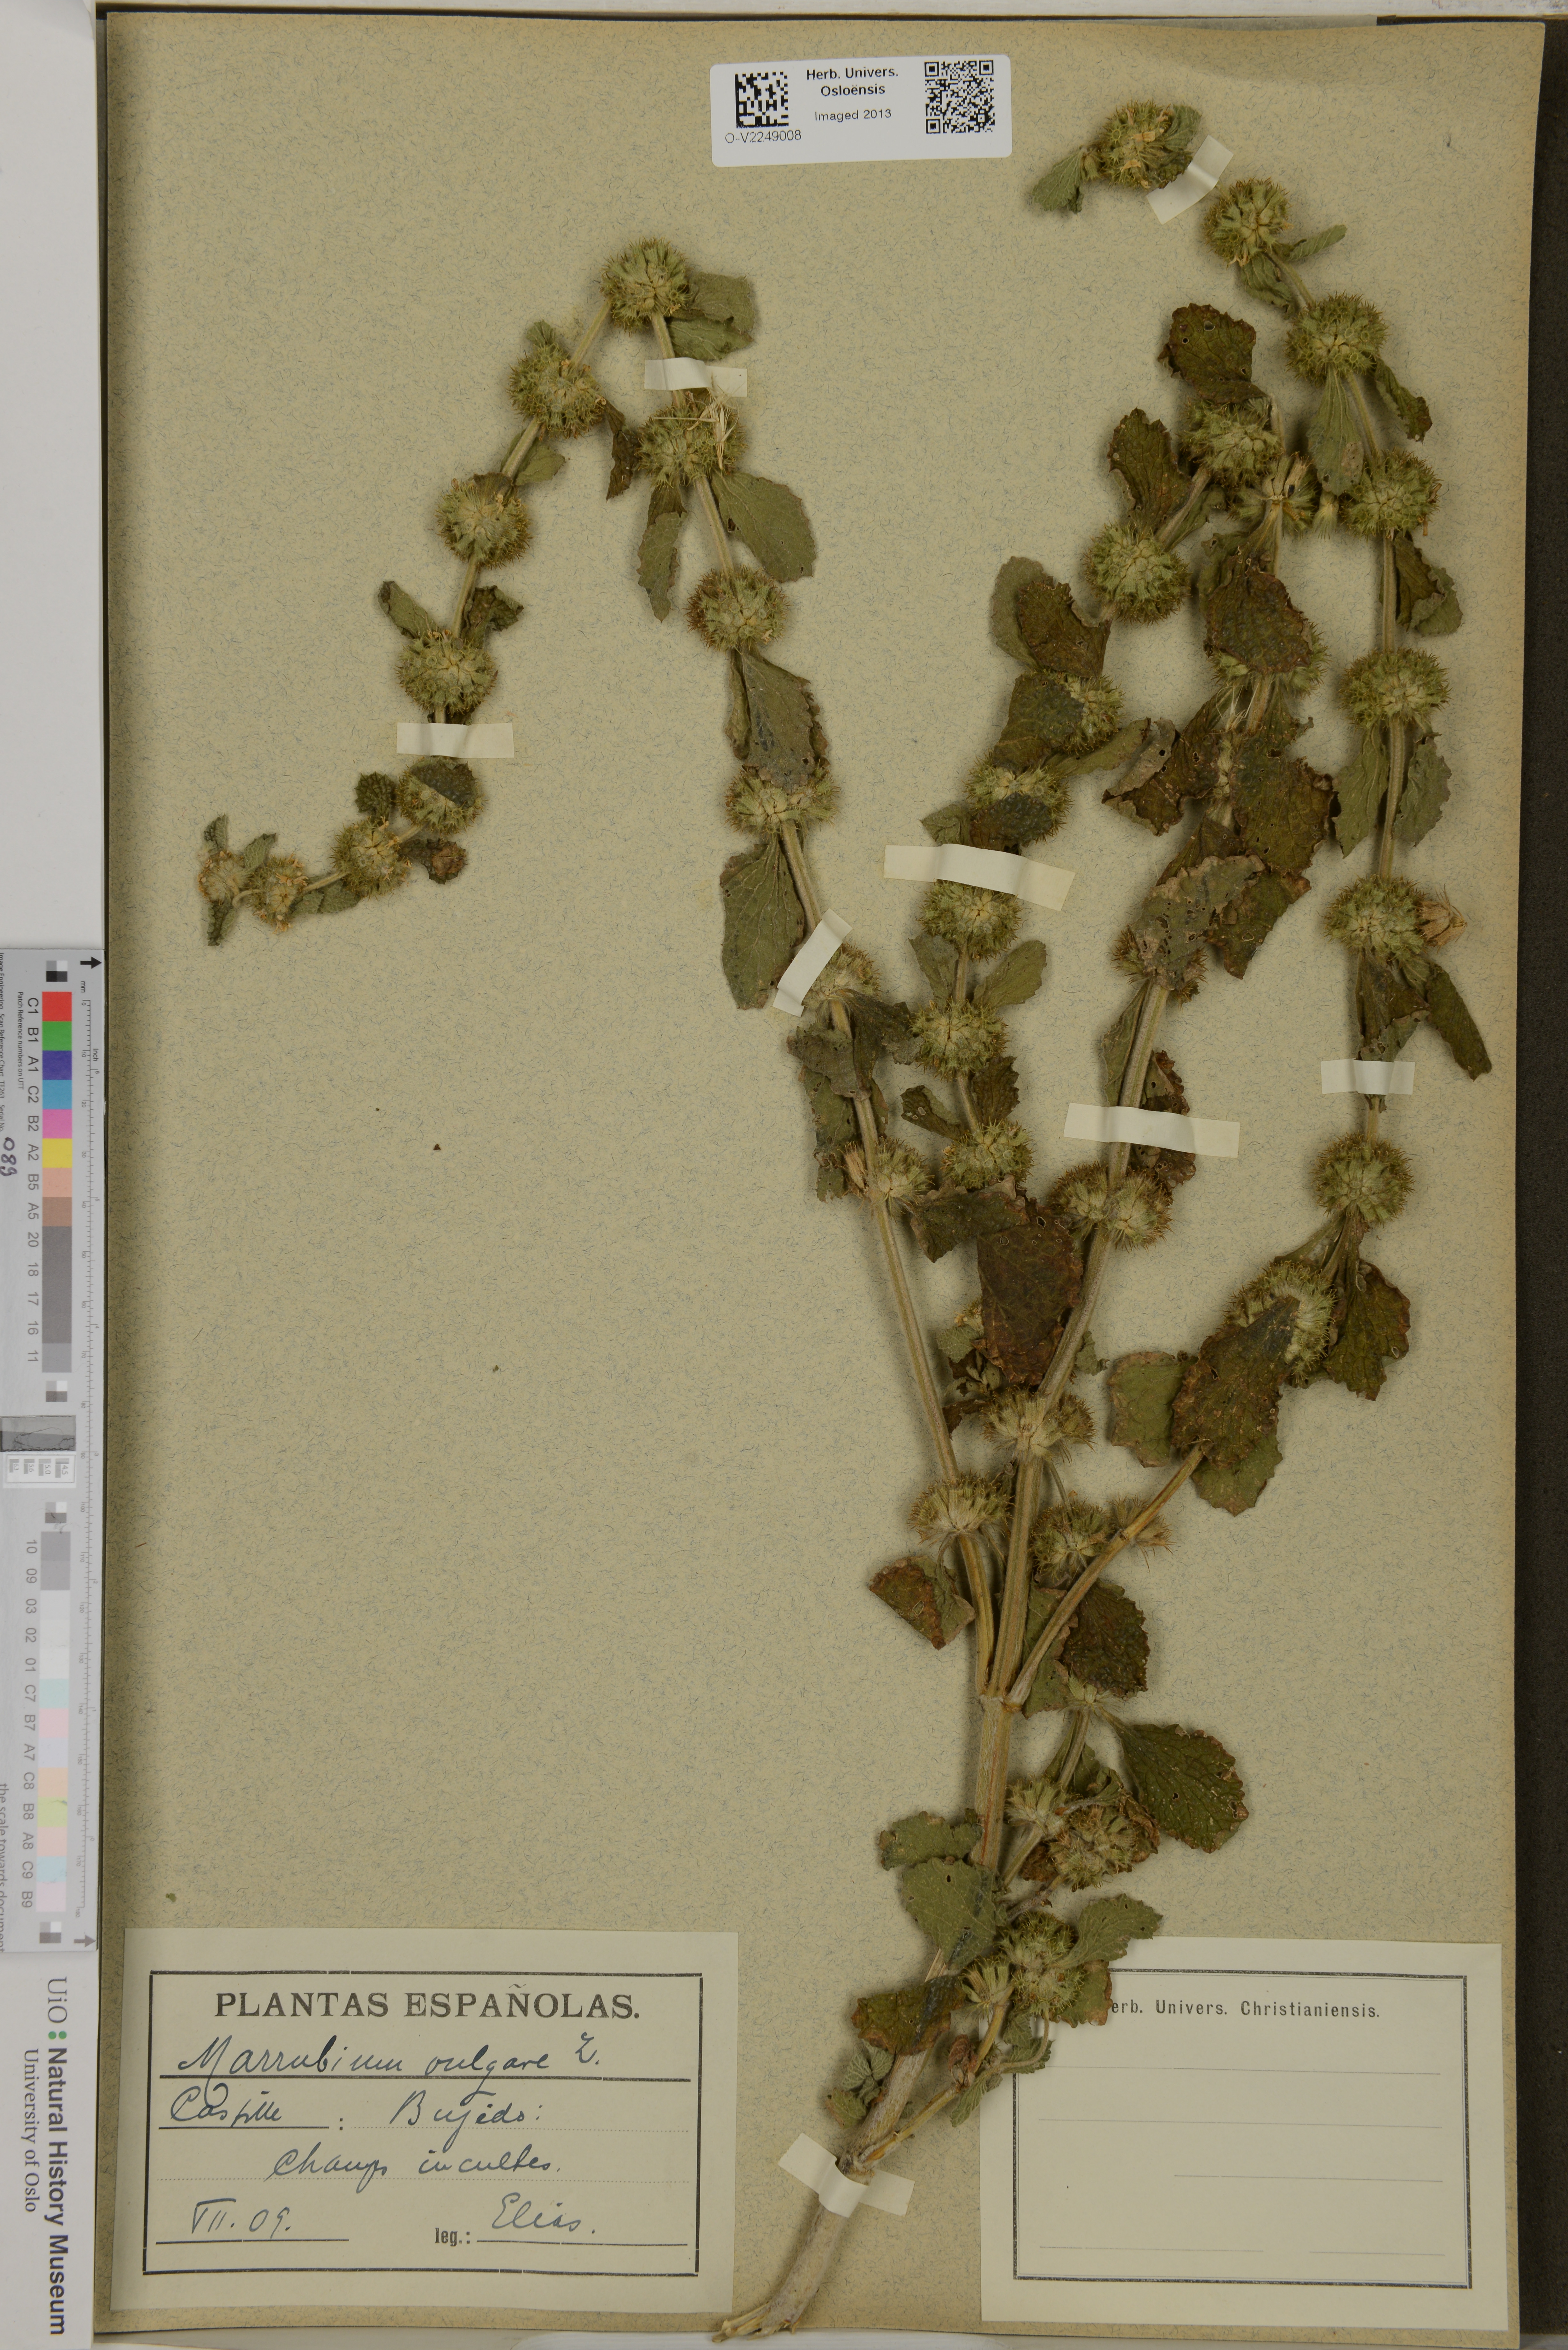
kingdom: Plantae
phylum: Tracheophyta
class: Magnoliopsida
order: Lamiales
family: Lamiaceae
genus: Marrubium
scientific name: Marrubium vulgare
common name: Horehound
